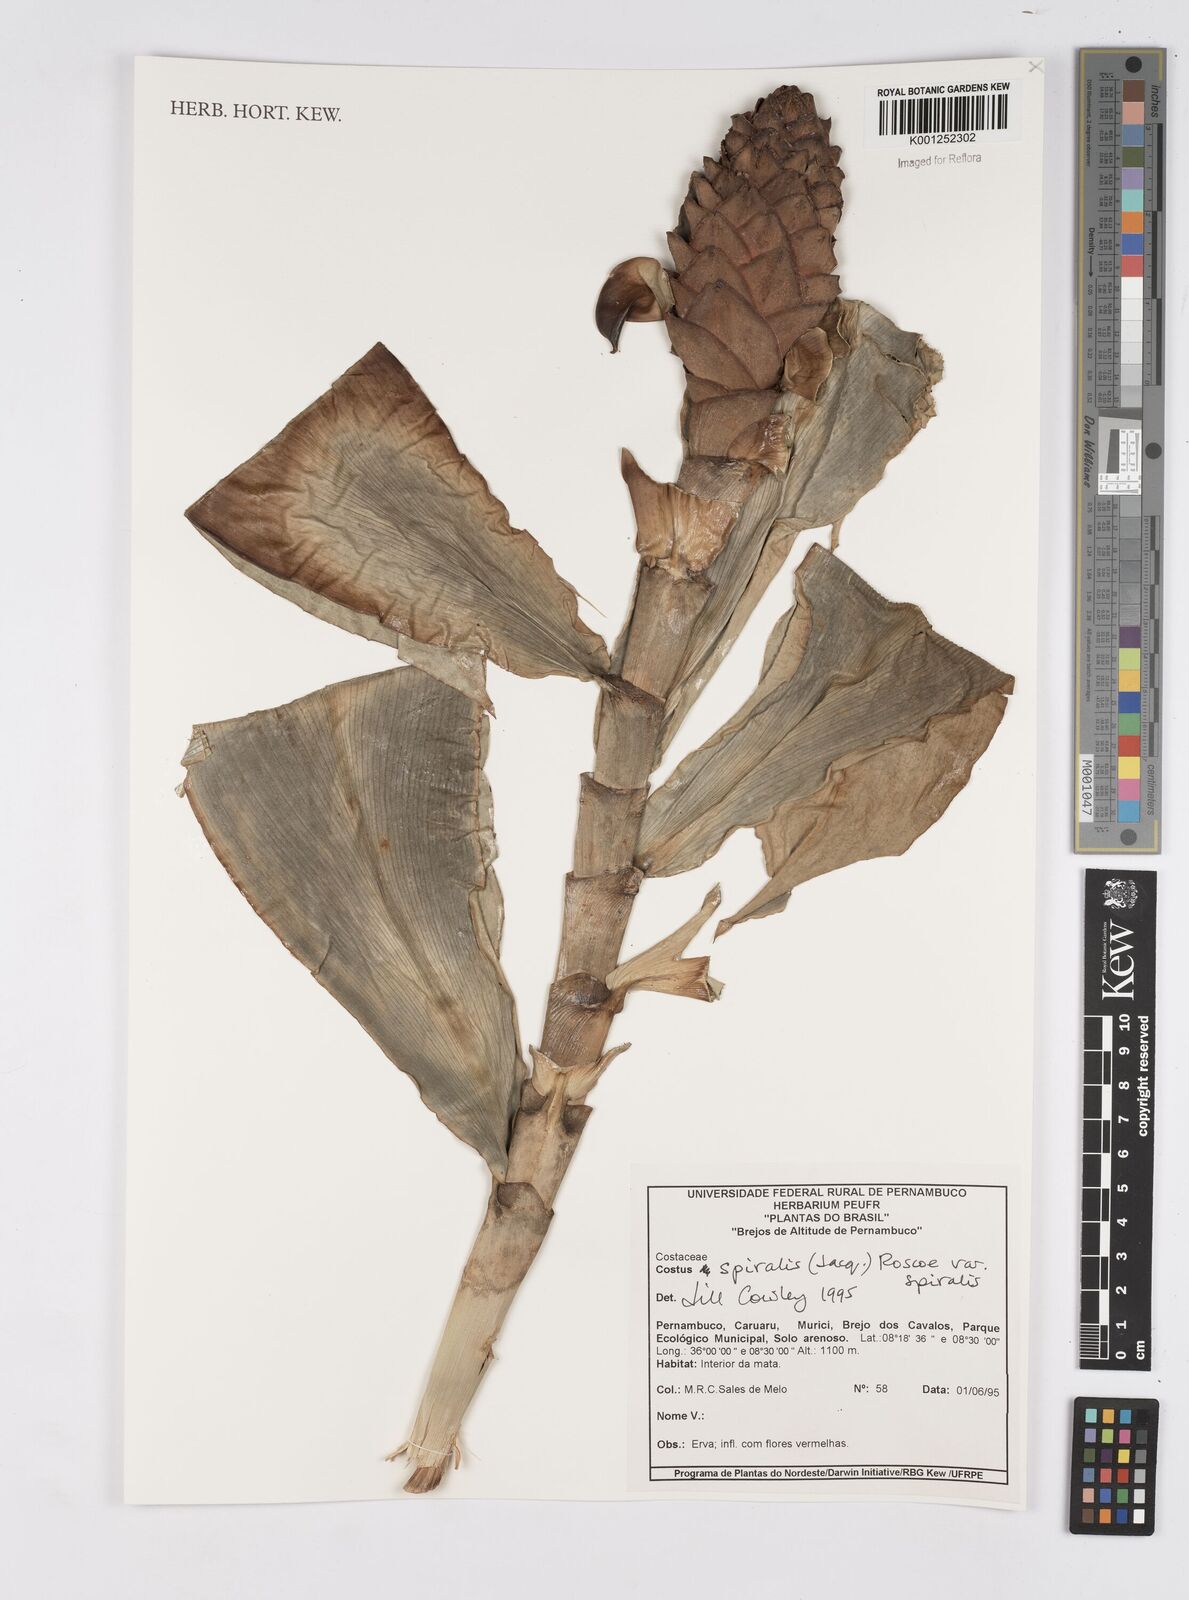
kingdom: Plantae
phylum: Tracheophyta
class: Liliopsida
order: Zingiberales
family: Costaceae
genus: Costus
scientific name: Costus spiralis
